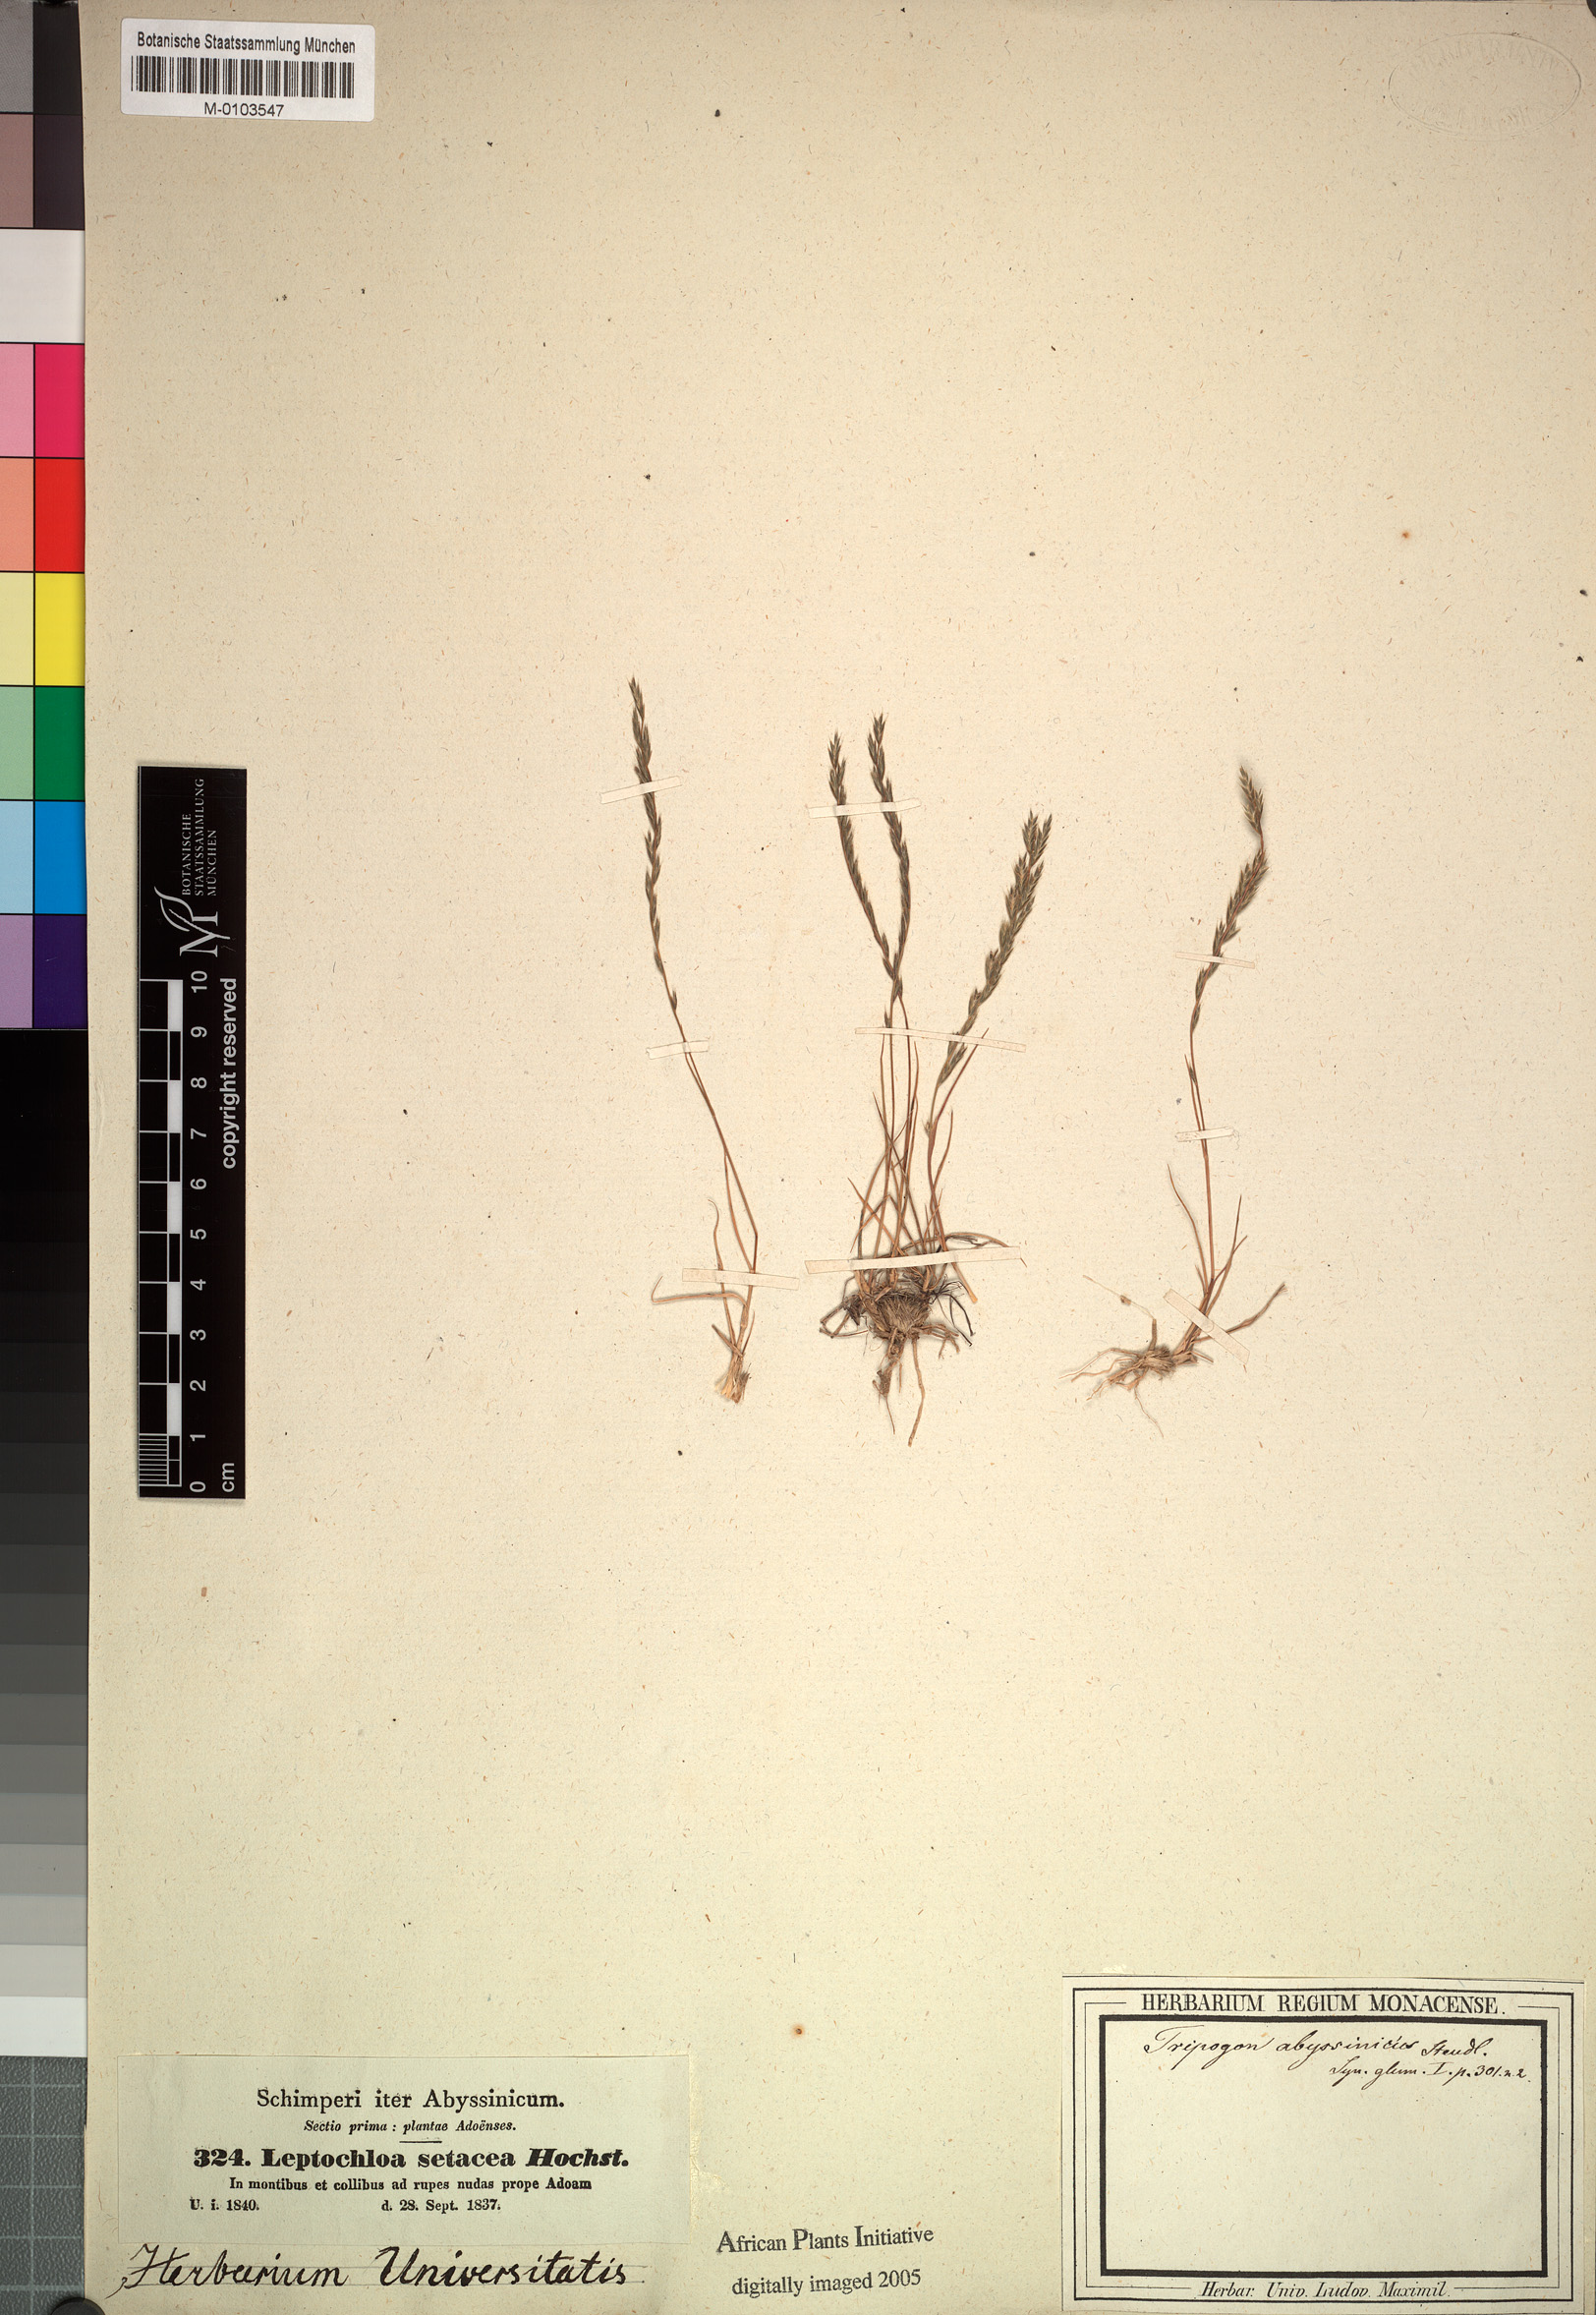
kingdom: Plantae
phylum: Tracheophyta
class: Liliopsida
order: Poales
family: Poaceae
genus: Tripogon
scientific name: Tripogon leptophyllus
